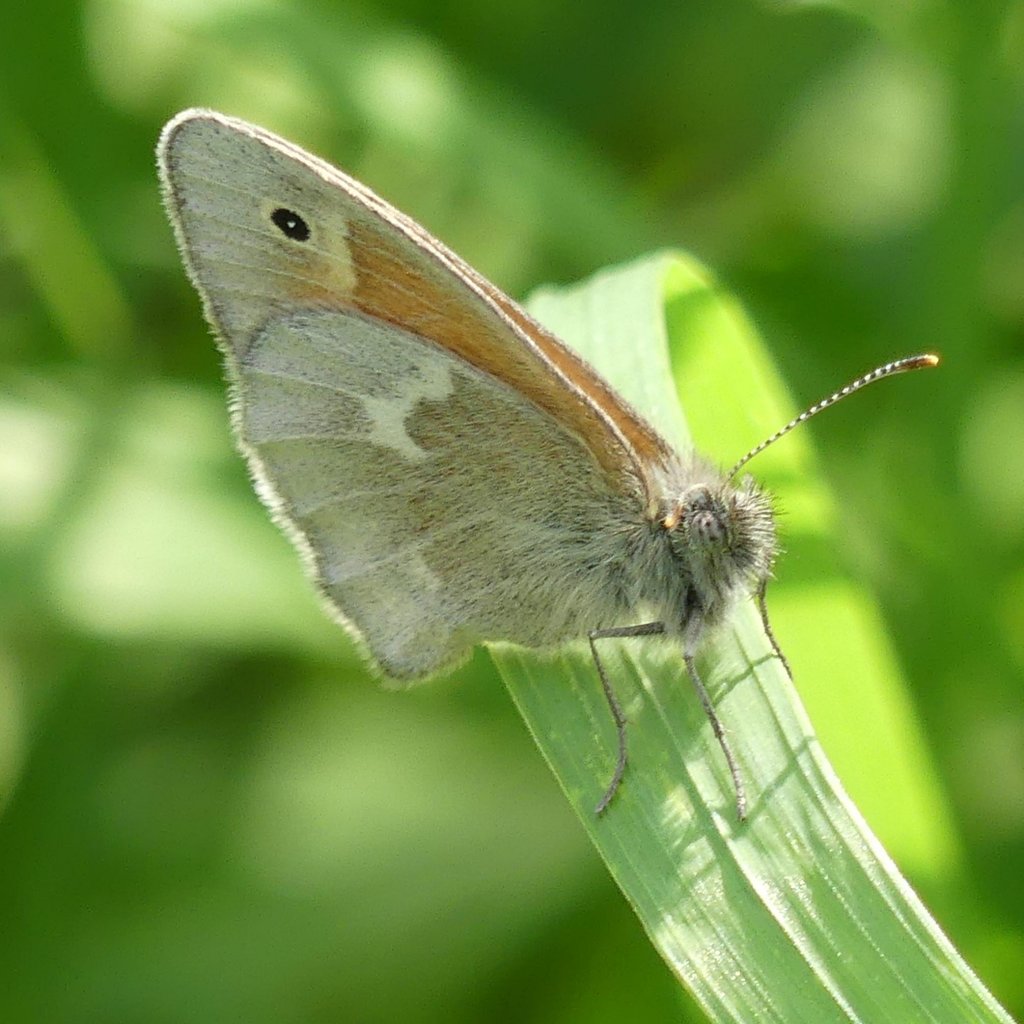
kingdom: Animalia
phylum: Arthropoda
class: Insecta
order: Lepidoptera
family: Nymphalidae
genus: Coenonympha
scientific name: Coenonympha tullia
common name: Large Heath
